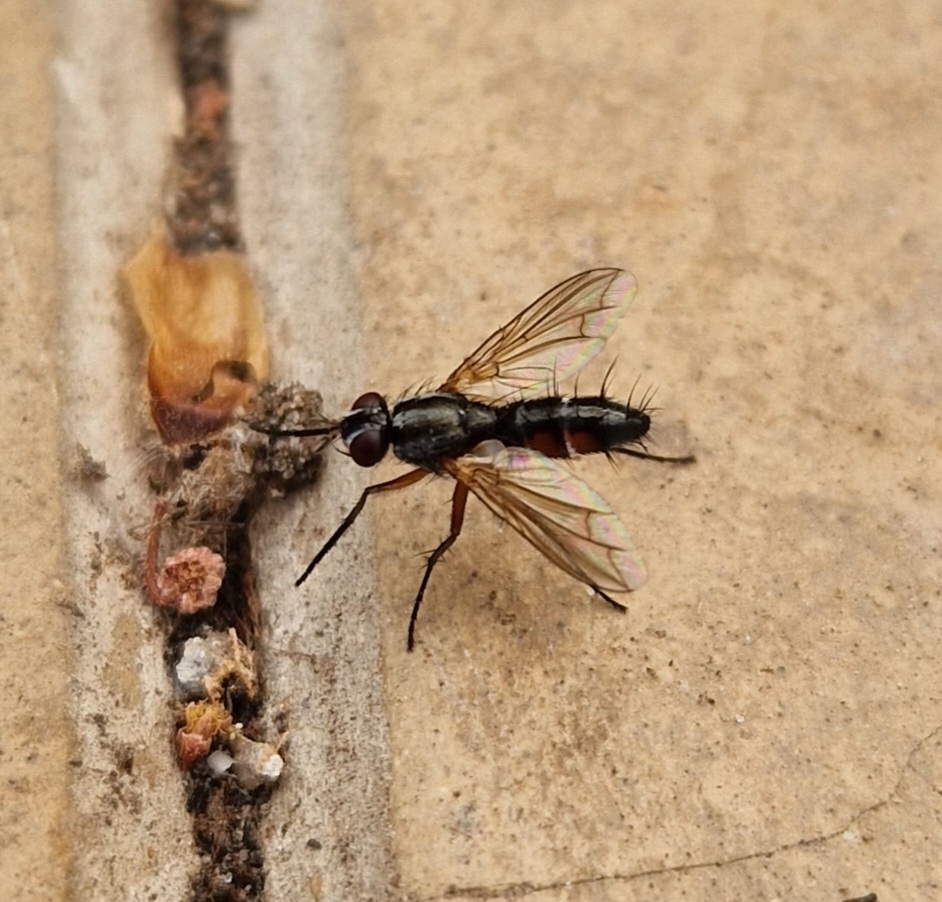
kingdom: Animalia
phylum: Arthropoda
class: Insecta
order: Diptera
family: Tachinidae
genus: Mintho
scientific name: Mintho rufiventris
